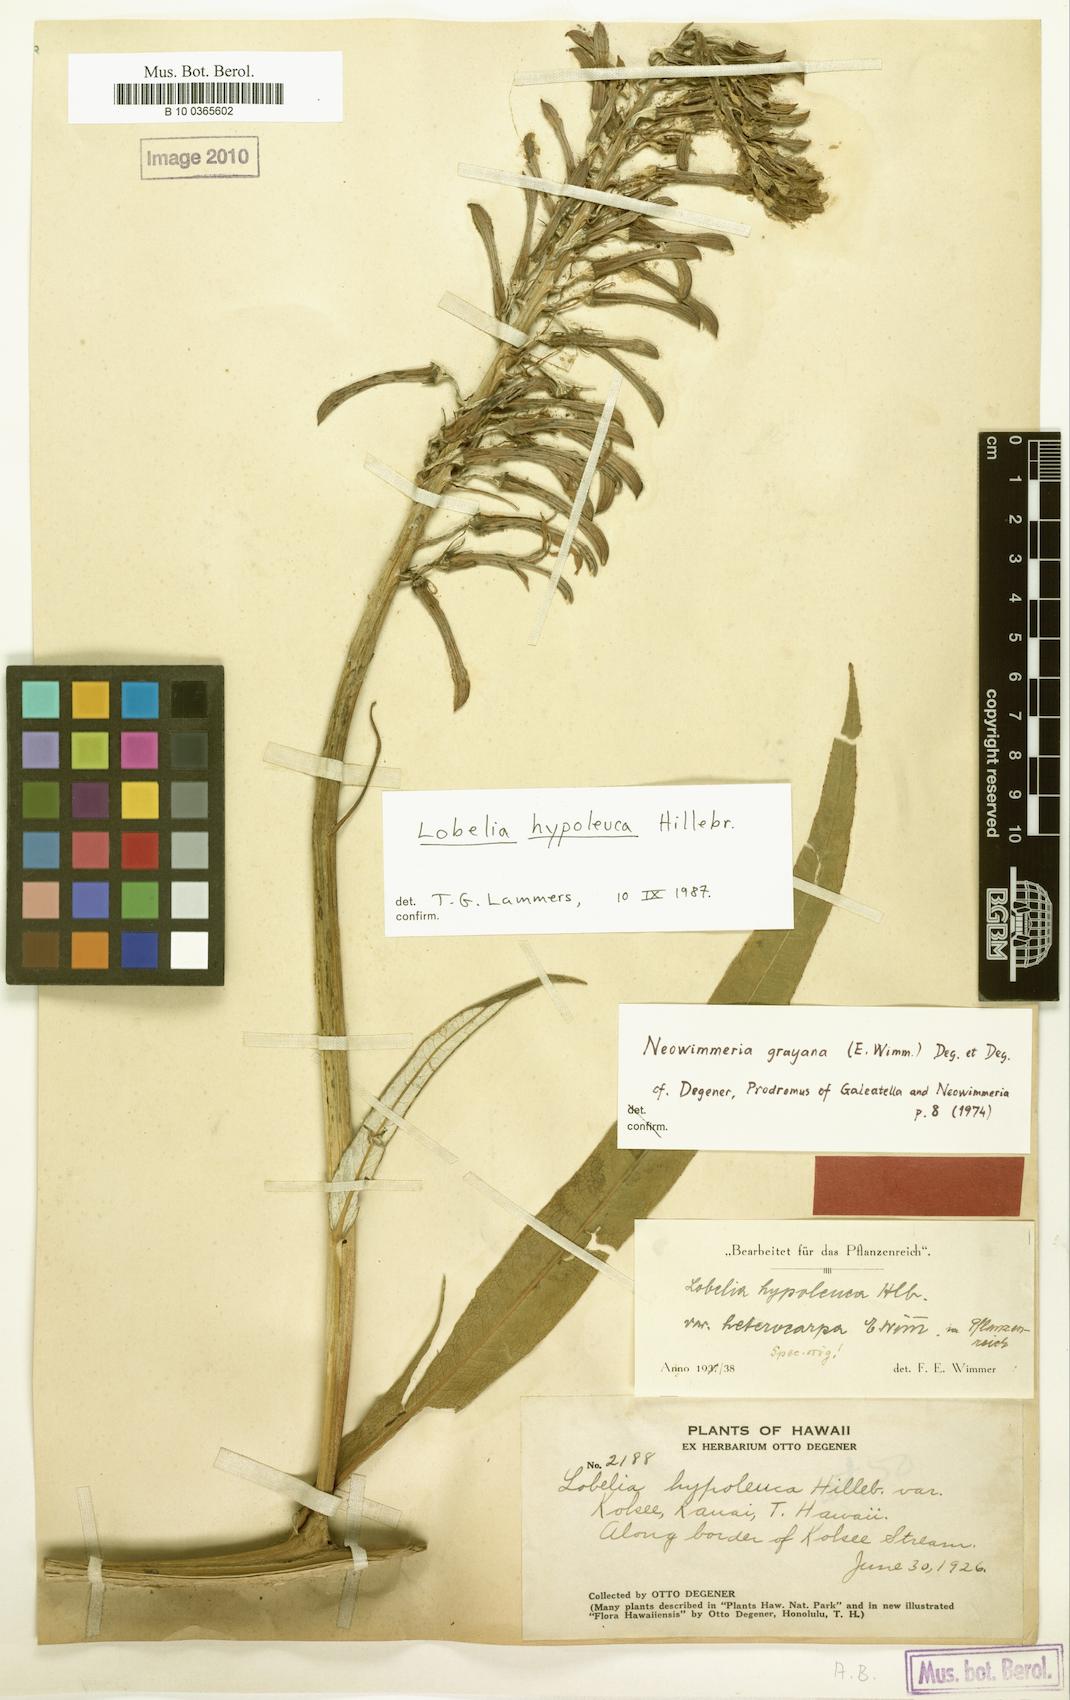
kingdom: Plantae
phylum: Tracheophyta
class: Magnoliopsida
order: Asterales
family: Campanulaceae
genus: Lobelia
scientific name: Lobelia hypoleuca
